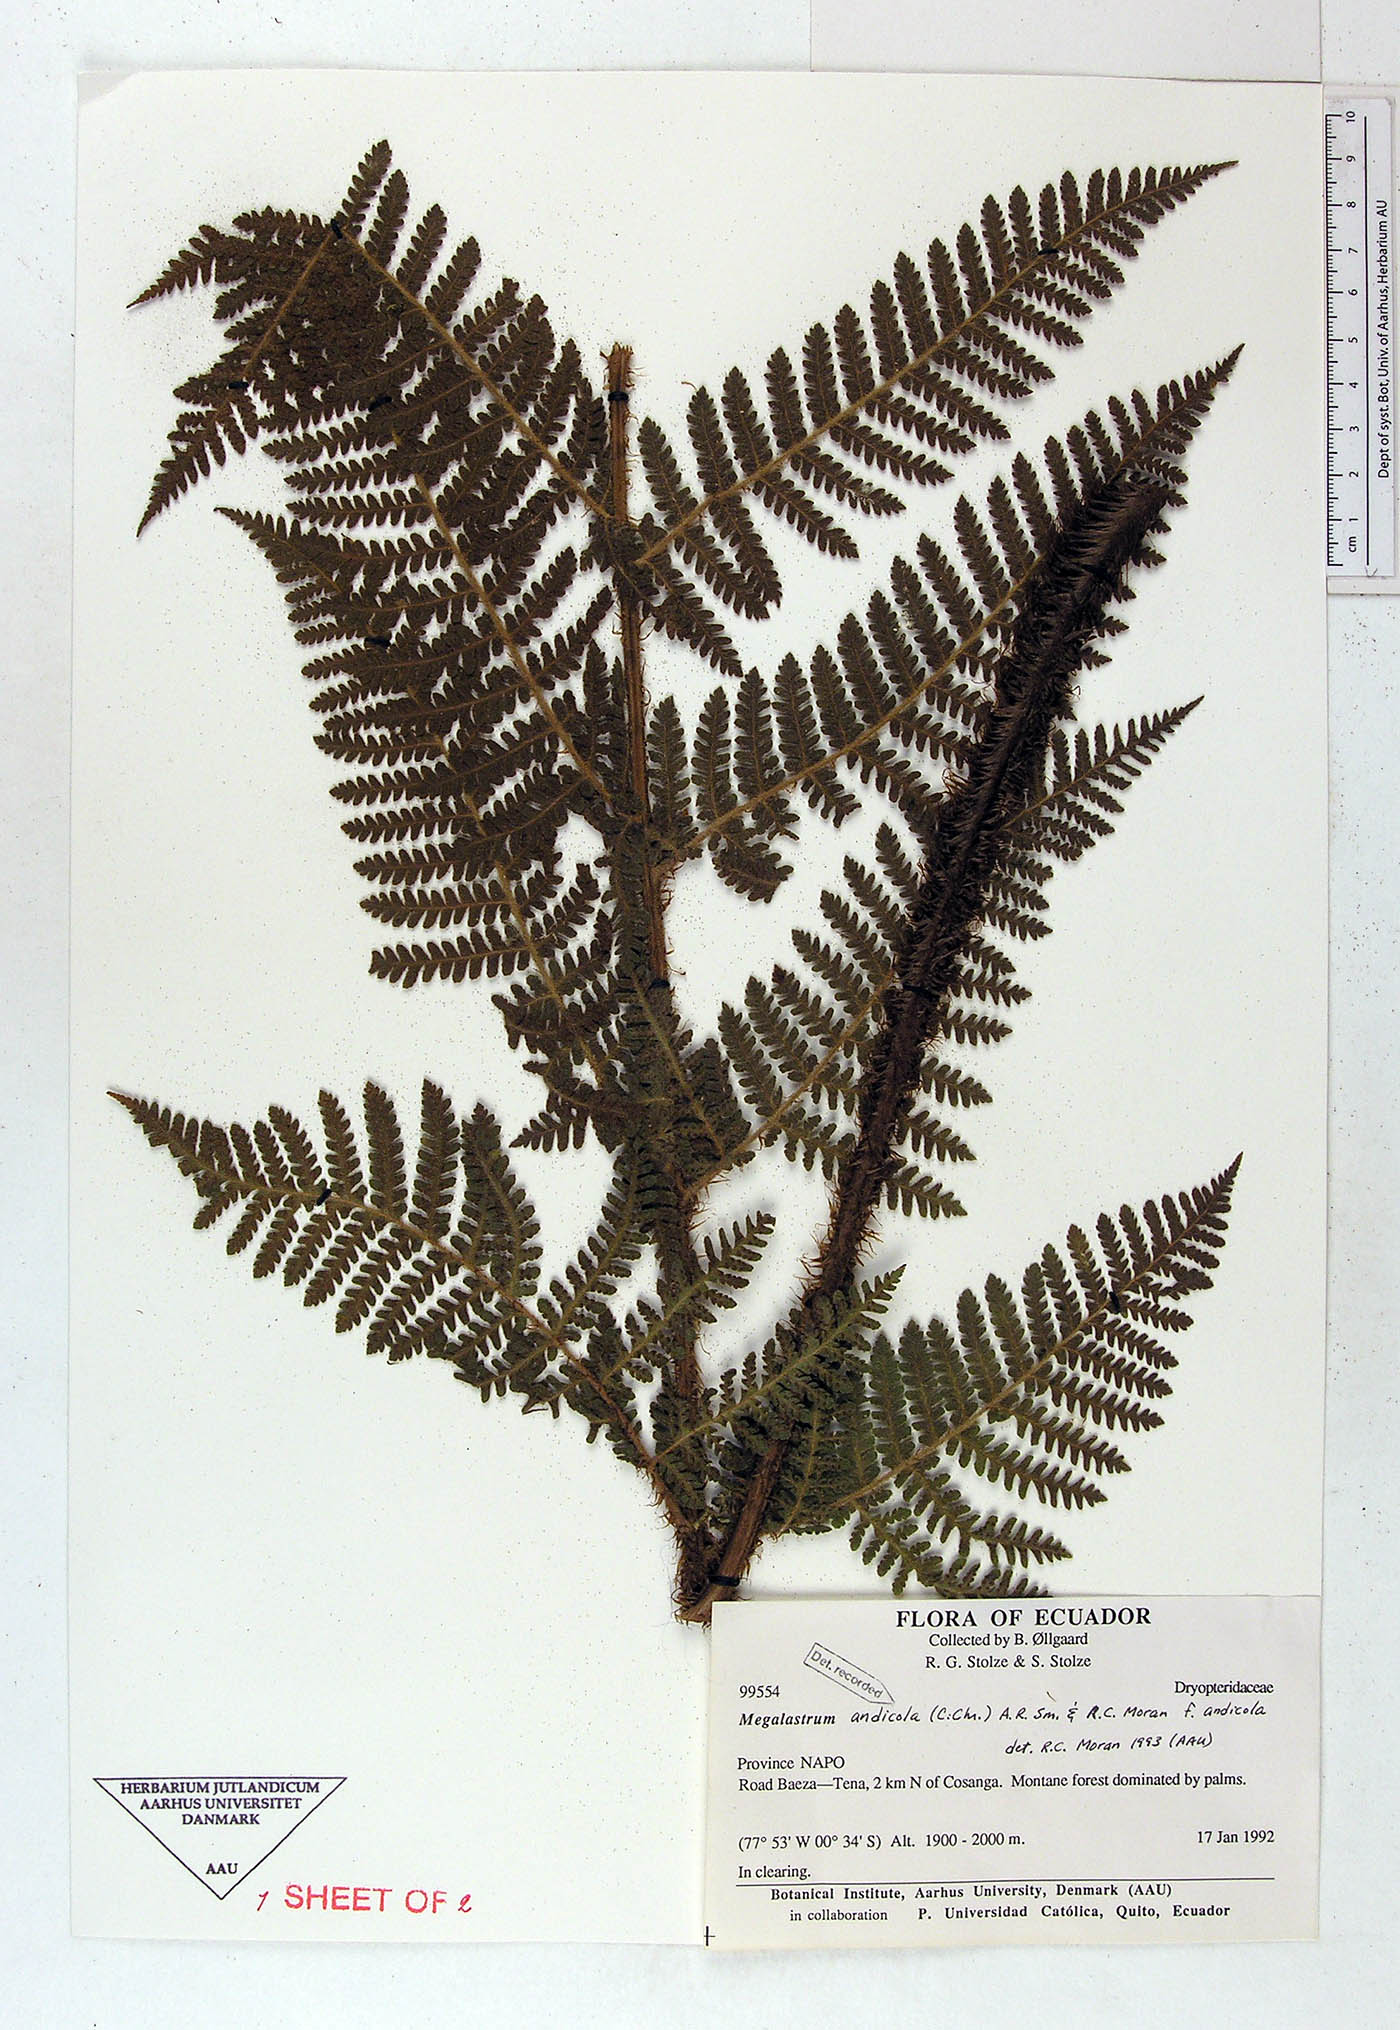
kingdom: Plantae
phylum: Tracheophyta
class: Polypodiopsida
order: Polypodiales
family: Dryopteridaceae
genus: Megalastrum
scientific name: Megalastrum insigne
